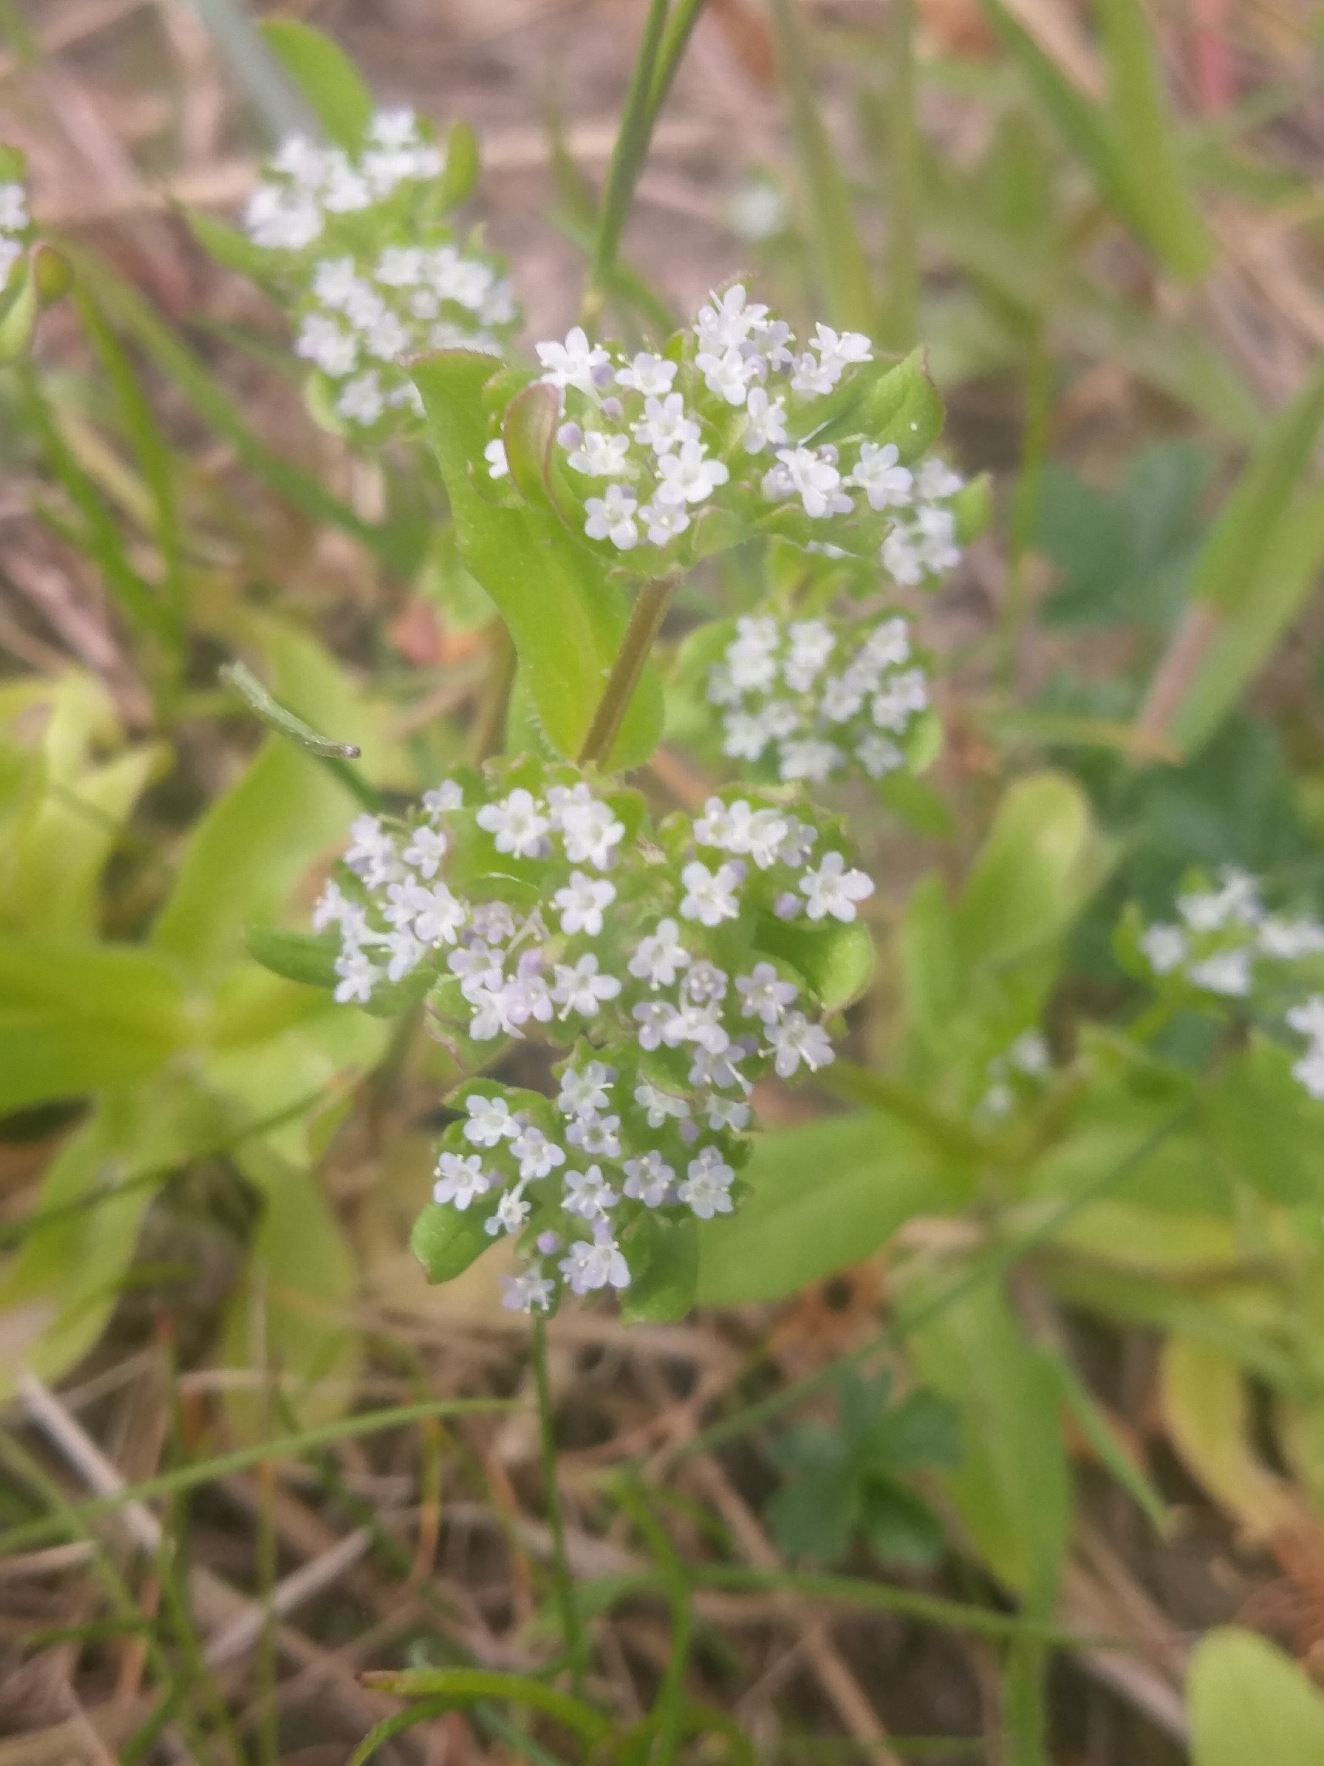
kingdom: Plantae
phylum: Tracheophyta
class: Magnoliopsida
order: Dipsacales
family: Caprifoliaceae
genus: Valerianella
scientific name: Valerianella locusta
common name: Tandfri vårsalat
